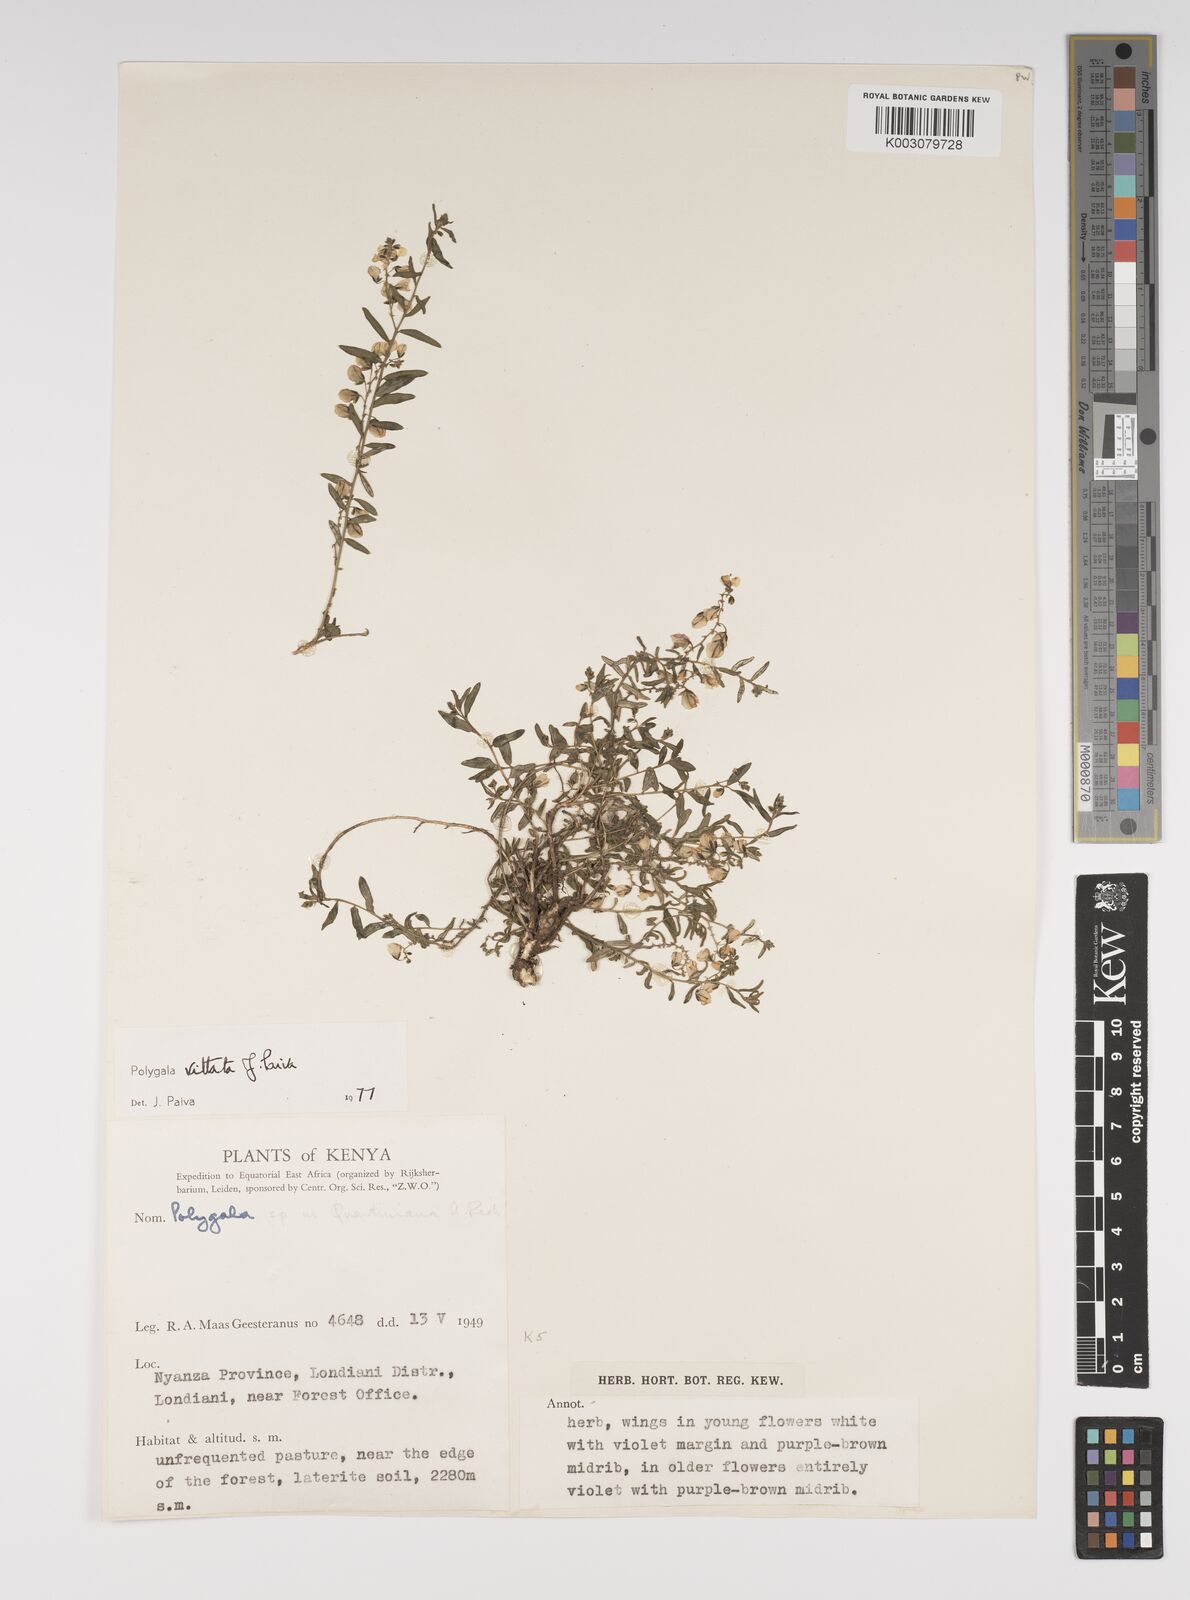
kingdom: Plantae
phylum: Tracheophyta
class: Magnoliopsida
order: Fabales
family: Polygalaceae
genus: Polygala
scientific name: Polygala vittata
